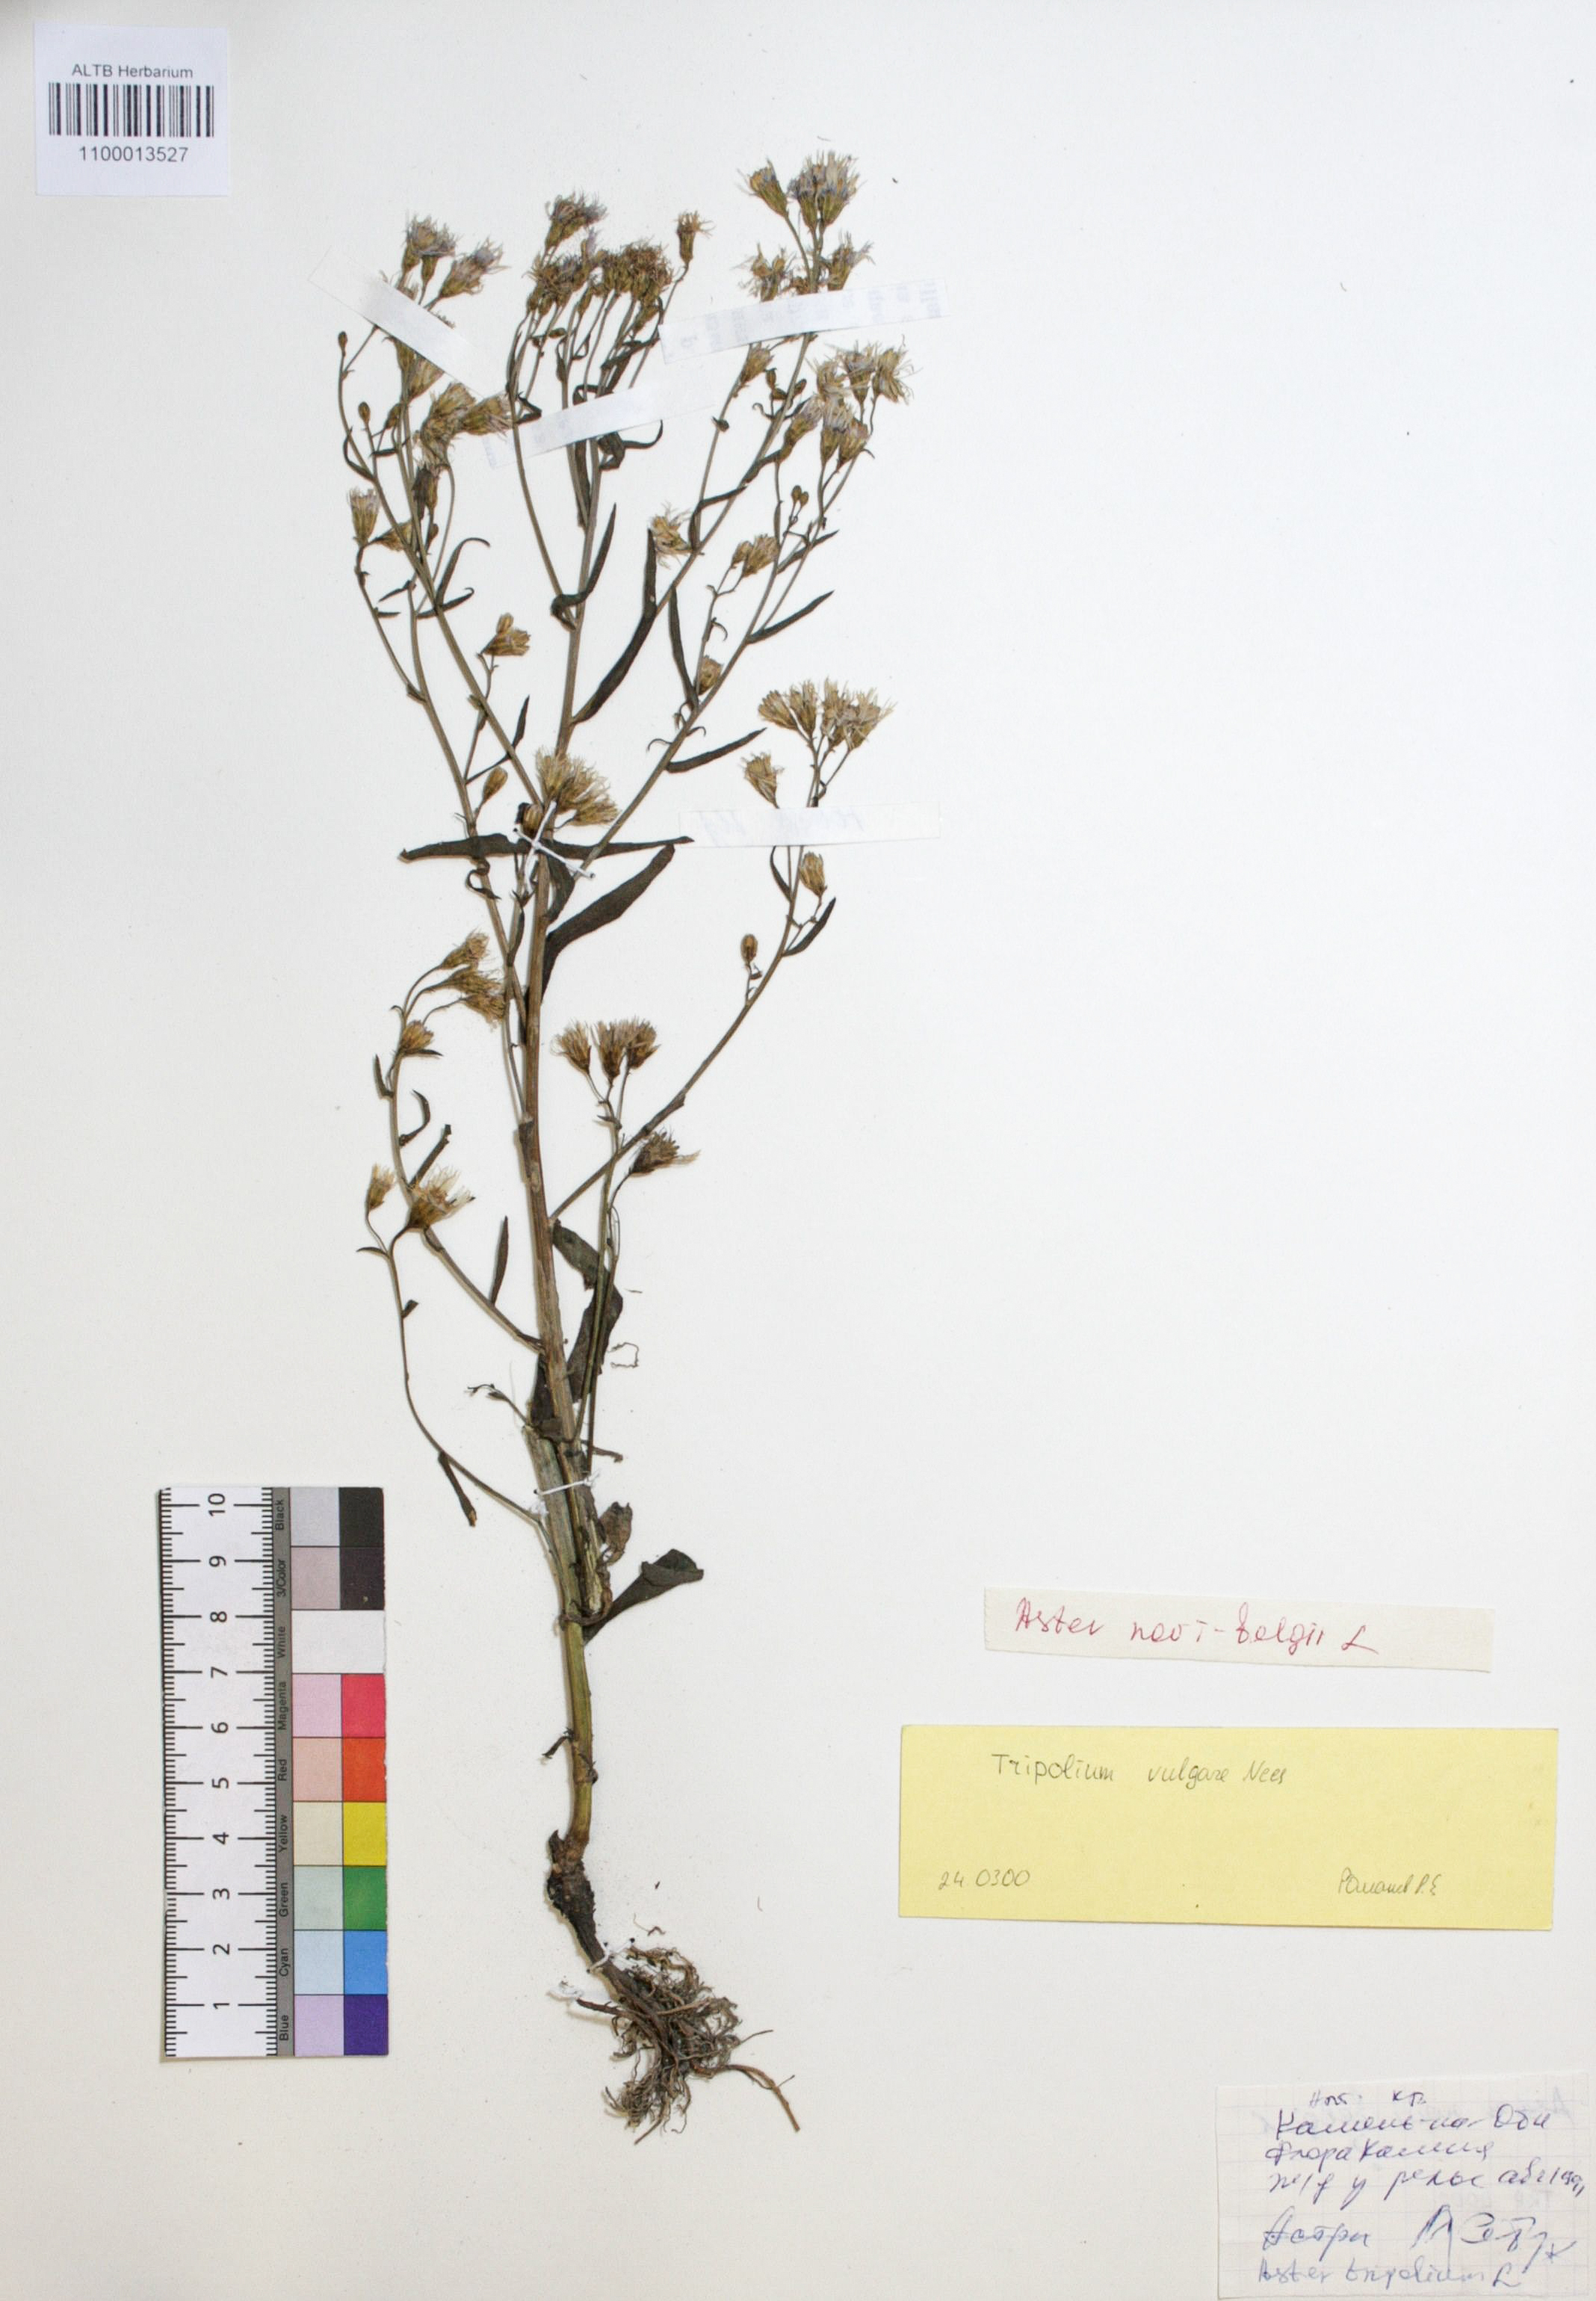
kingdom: Plantae
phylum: Tracheophyta
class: Magnoliopsida
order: Asterales
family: Asteraceae
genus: Tripolium
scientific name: Tripolium pannonicum
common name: Sea aster
